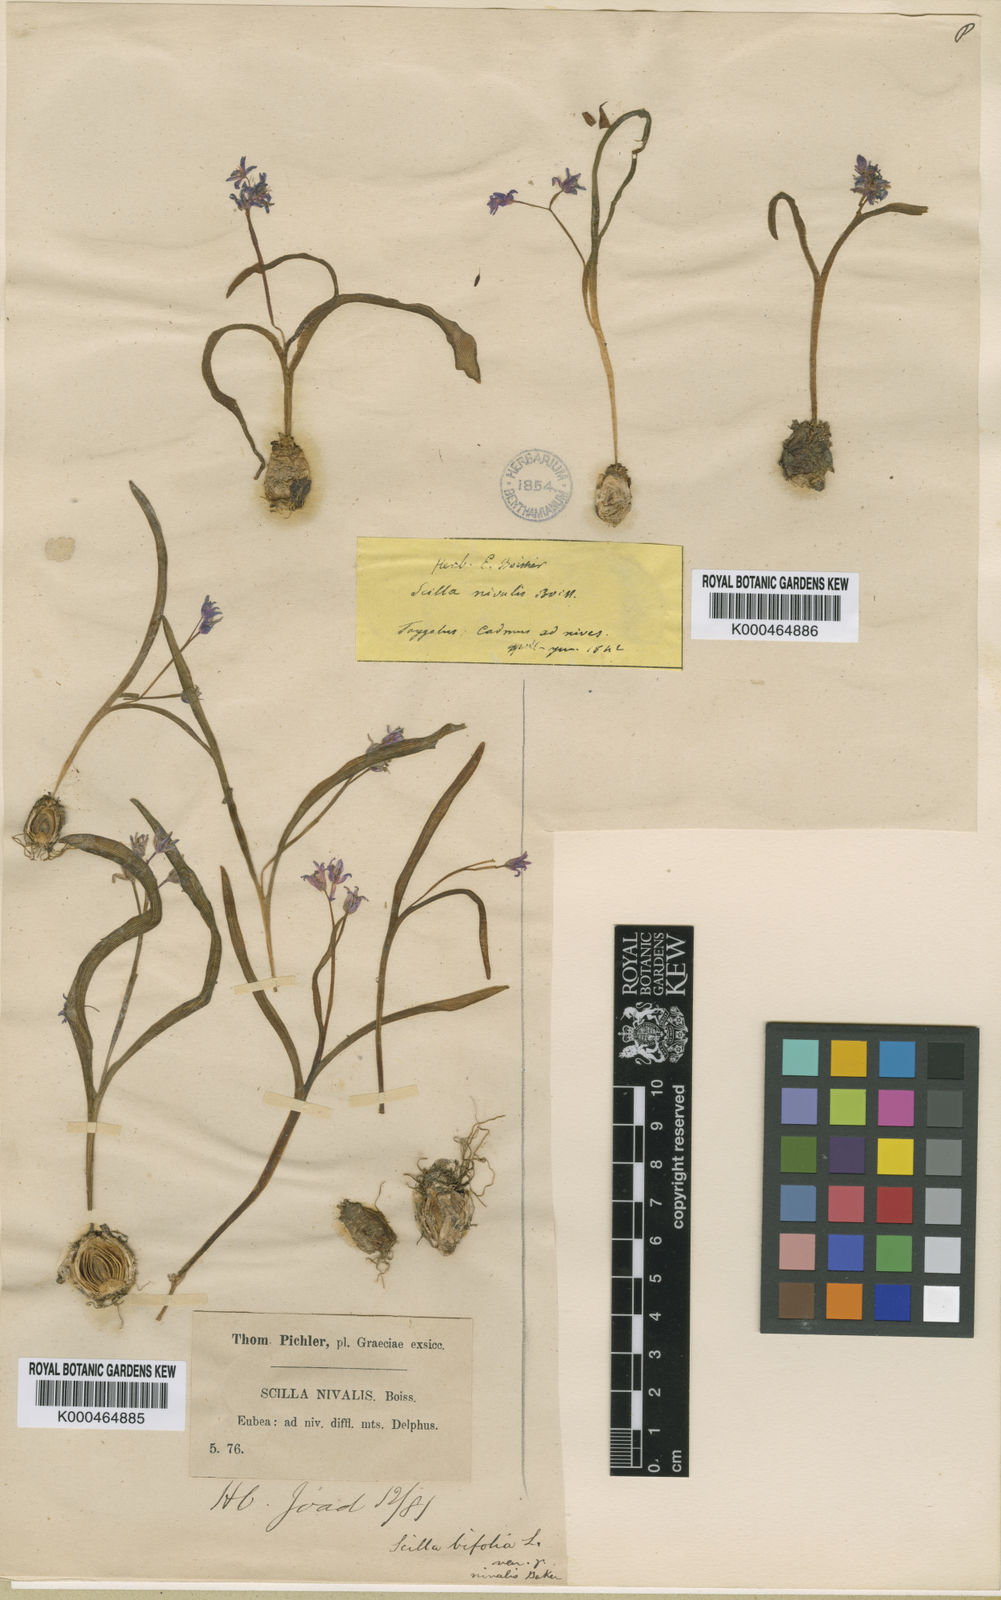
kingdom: Plantae
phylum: Tracheophyta
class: Liliopsida
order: Asparagales
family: Asparagaceae
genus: Scilla
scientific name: Scilla nivalis
